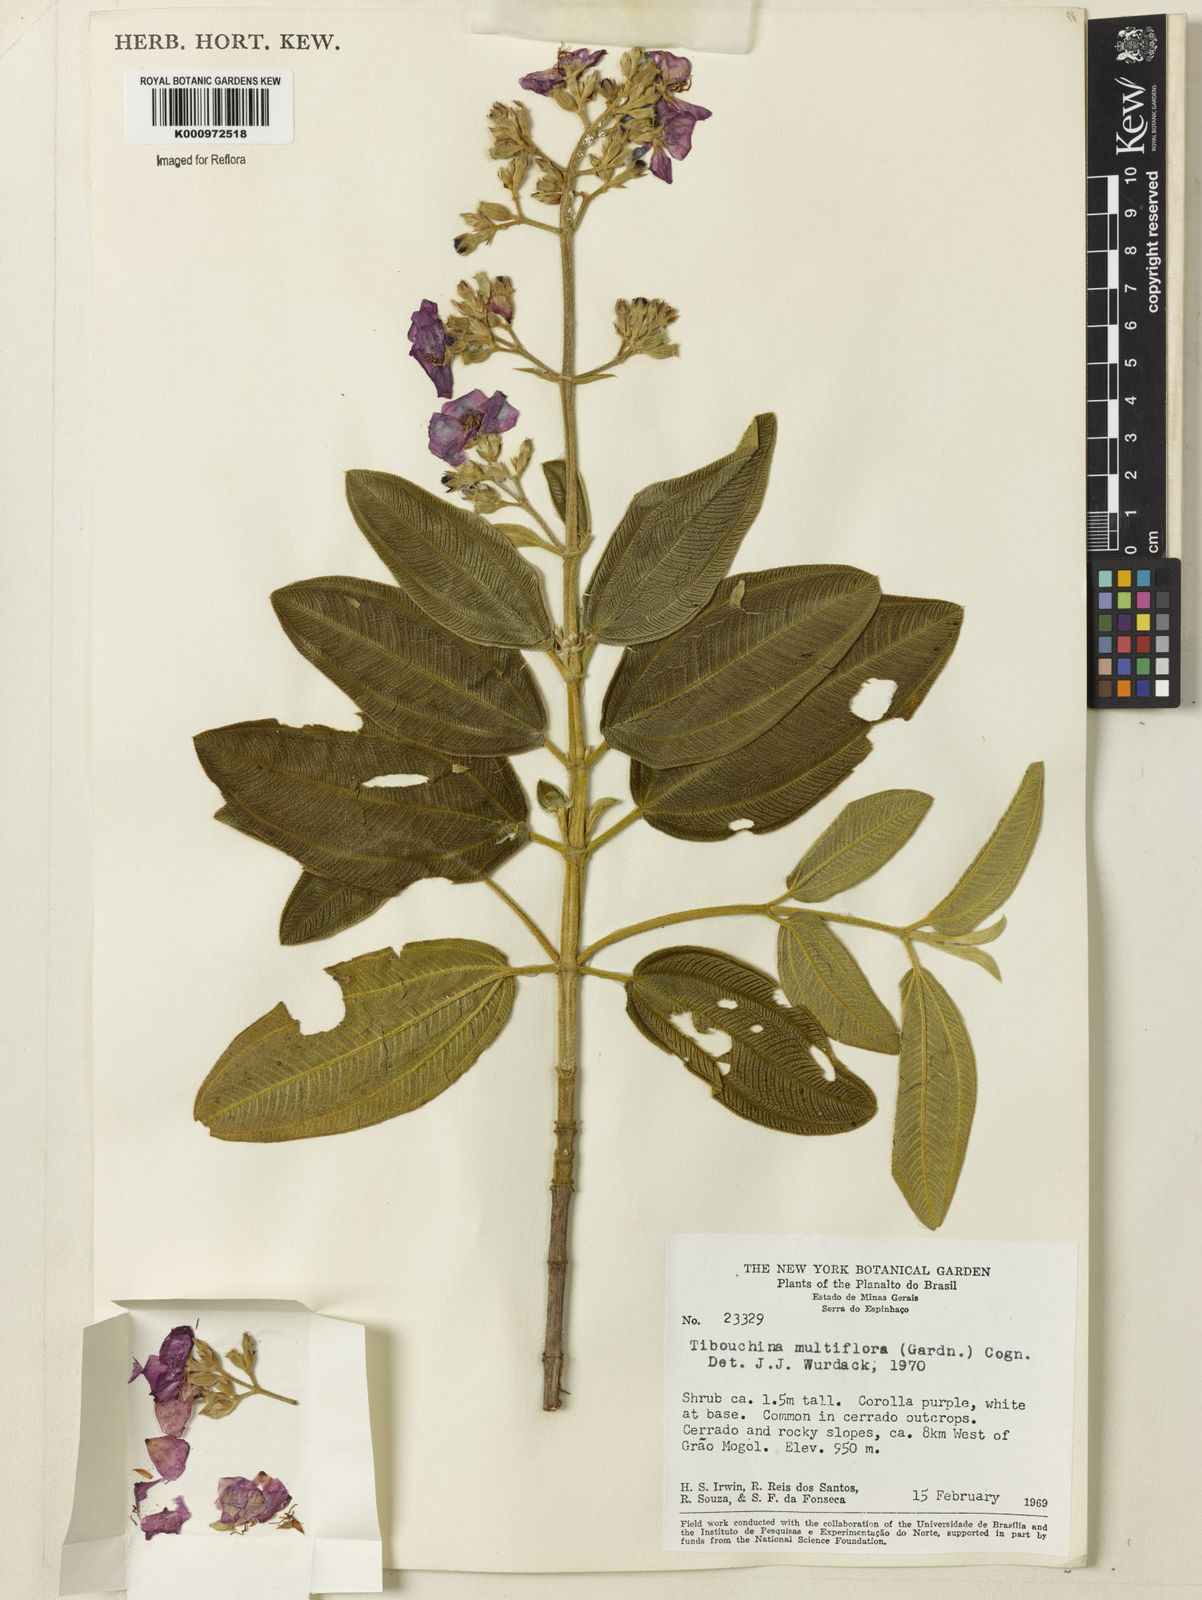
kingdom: Plantae
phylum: Tracheophyta
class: Magnoliopsida
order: Myrtales
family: Melastomataceae
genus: Pleroma
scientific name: Pleroma heteromallum
